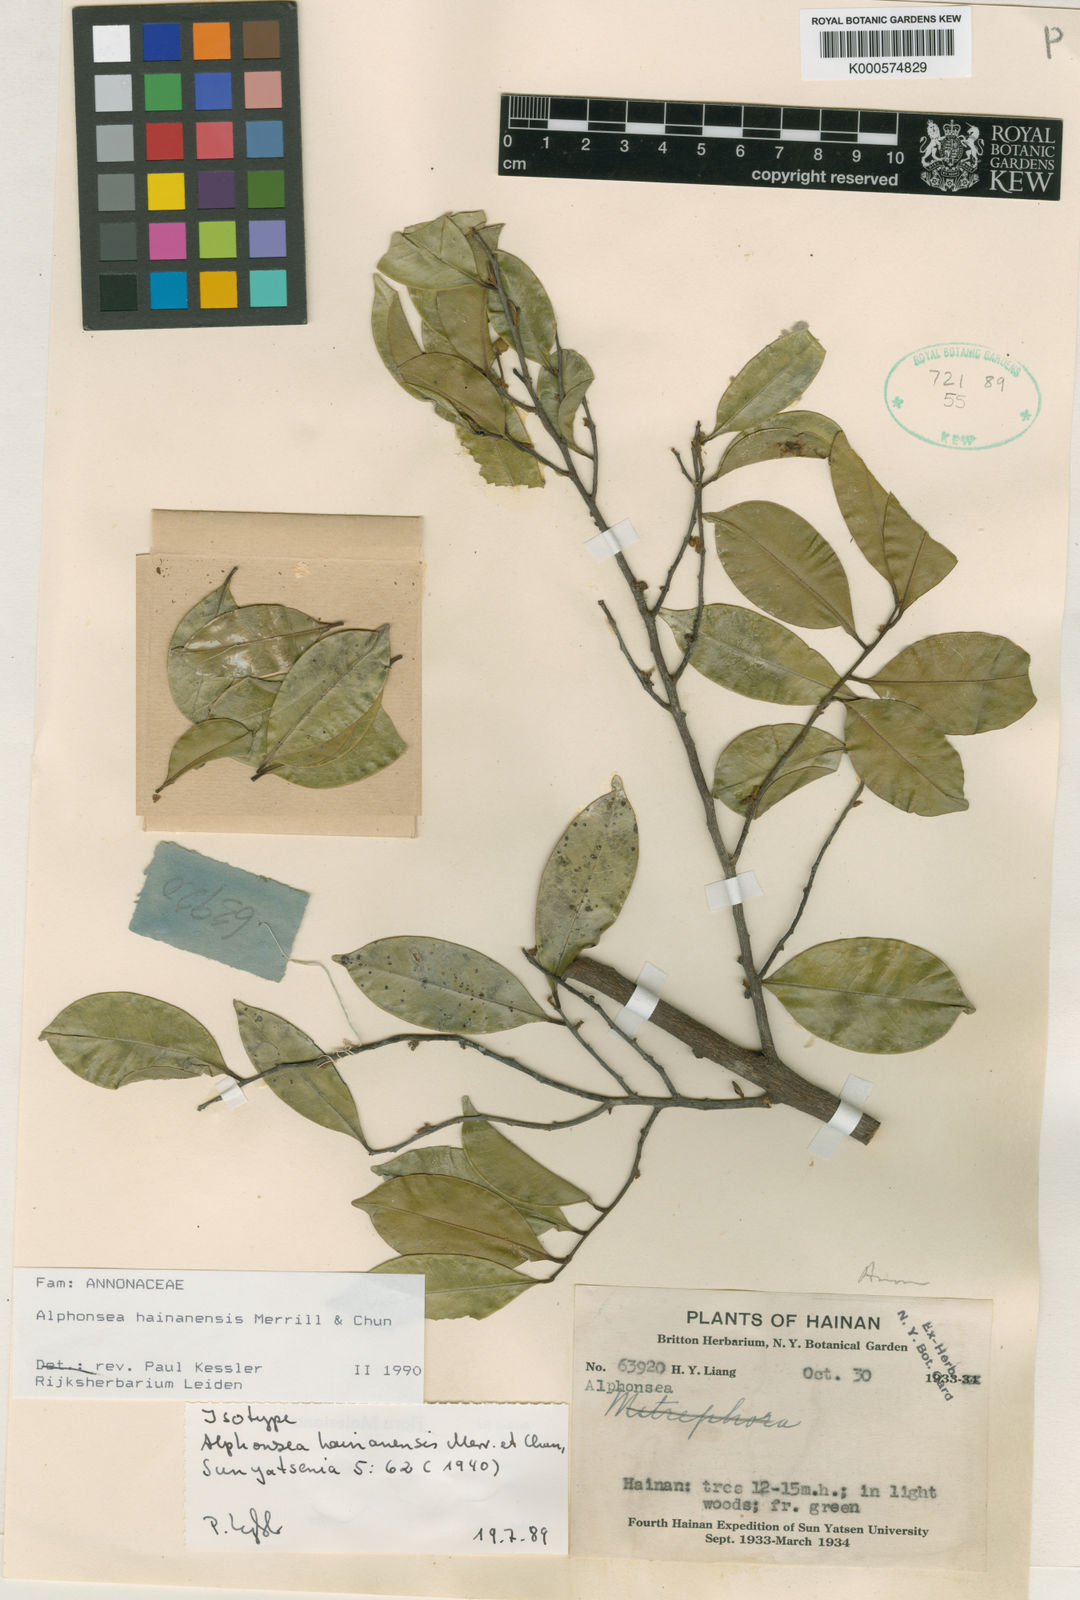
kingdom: Plantae
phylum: Tracheophyta
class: Magnoliopsida
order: Magnoliales
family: Annonaceae
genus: Alphonsea
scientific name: Alphonsea hainanensis
